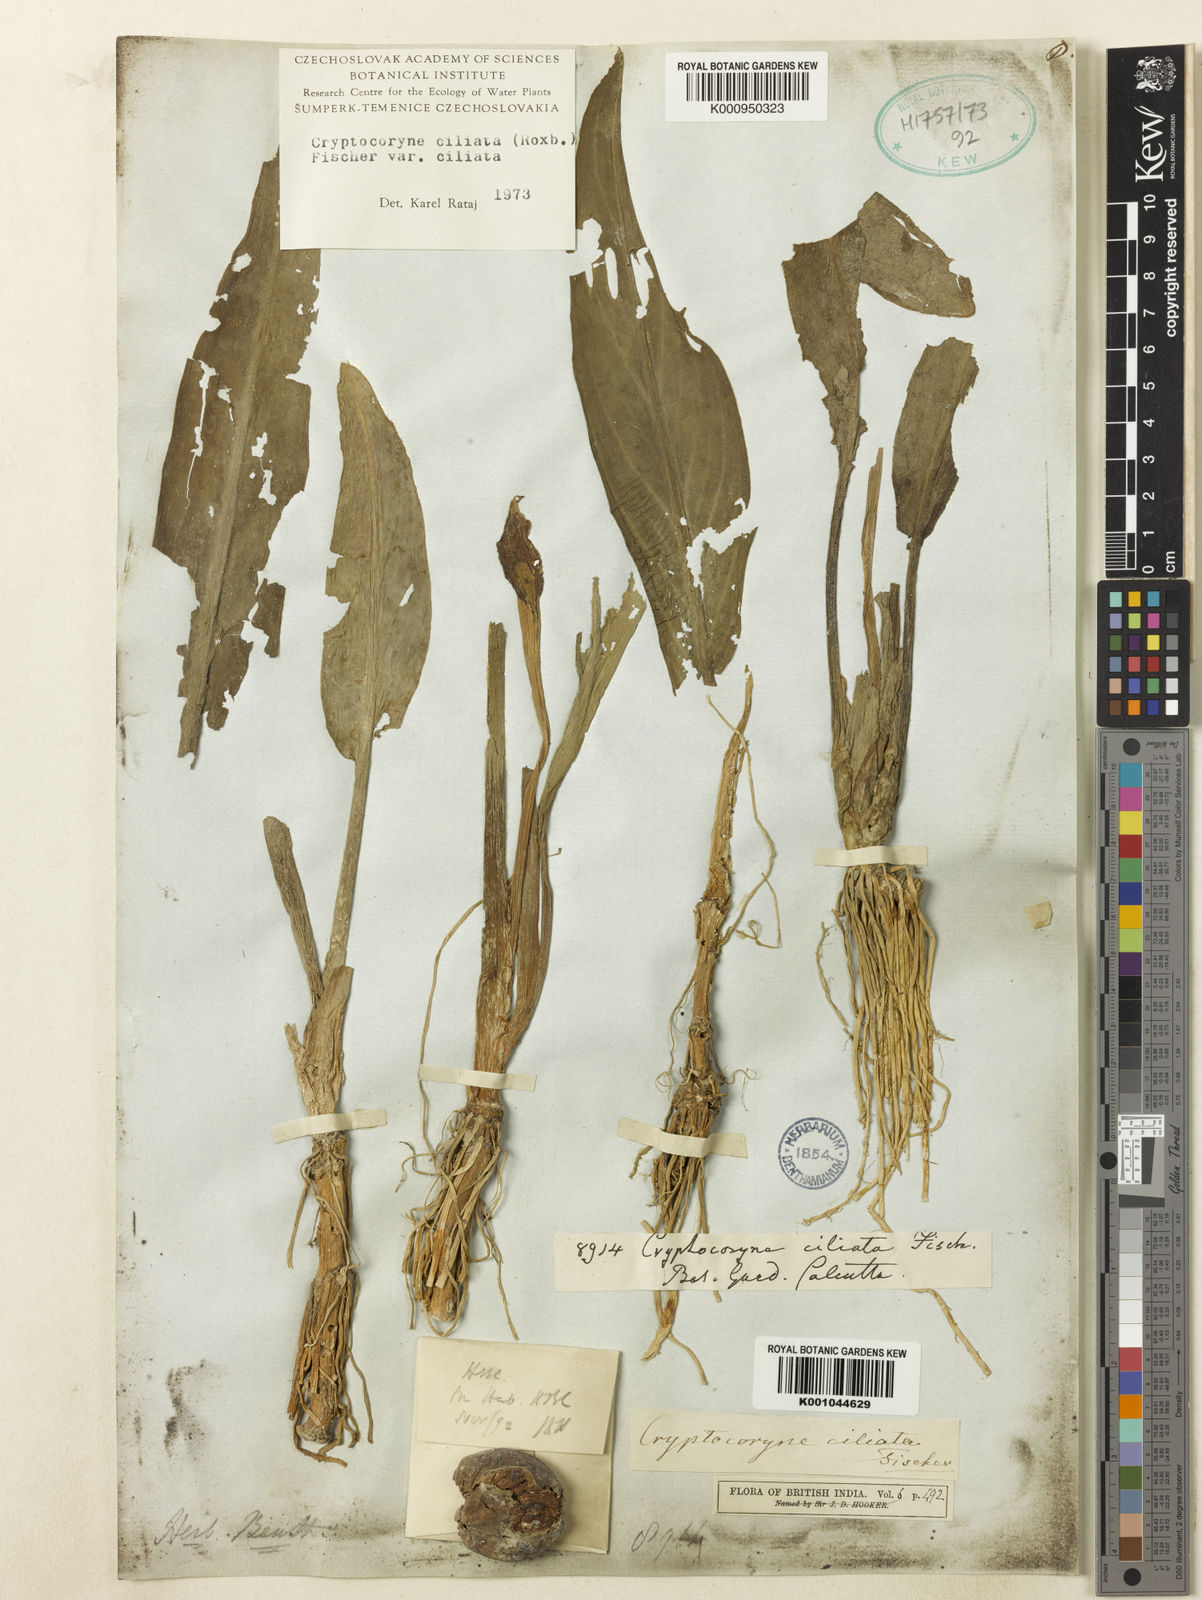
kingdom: Plantae
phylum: Tracheophyta
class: Liliopsida
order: Alismatales
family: Araceae
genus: Cryptocoryne
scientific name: Cryptocoryne ciliata
